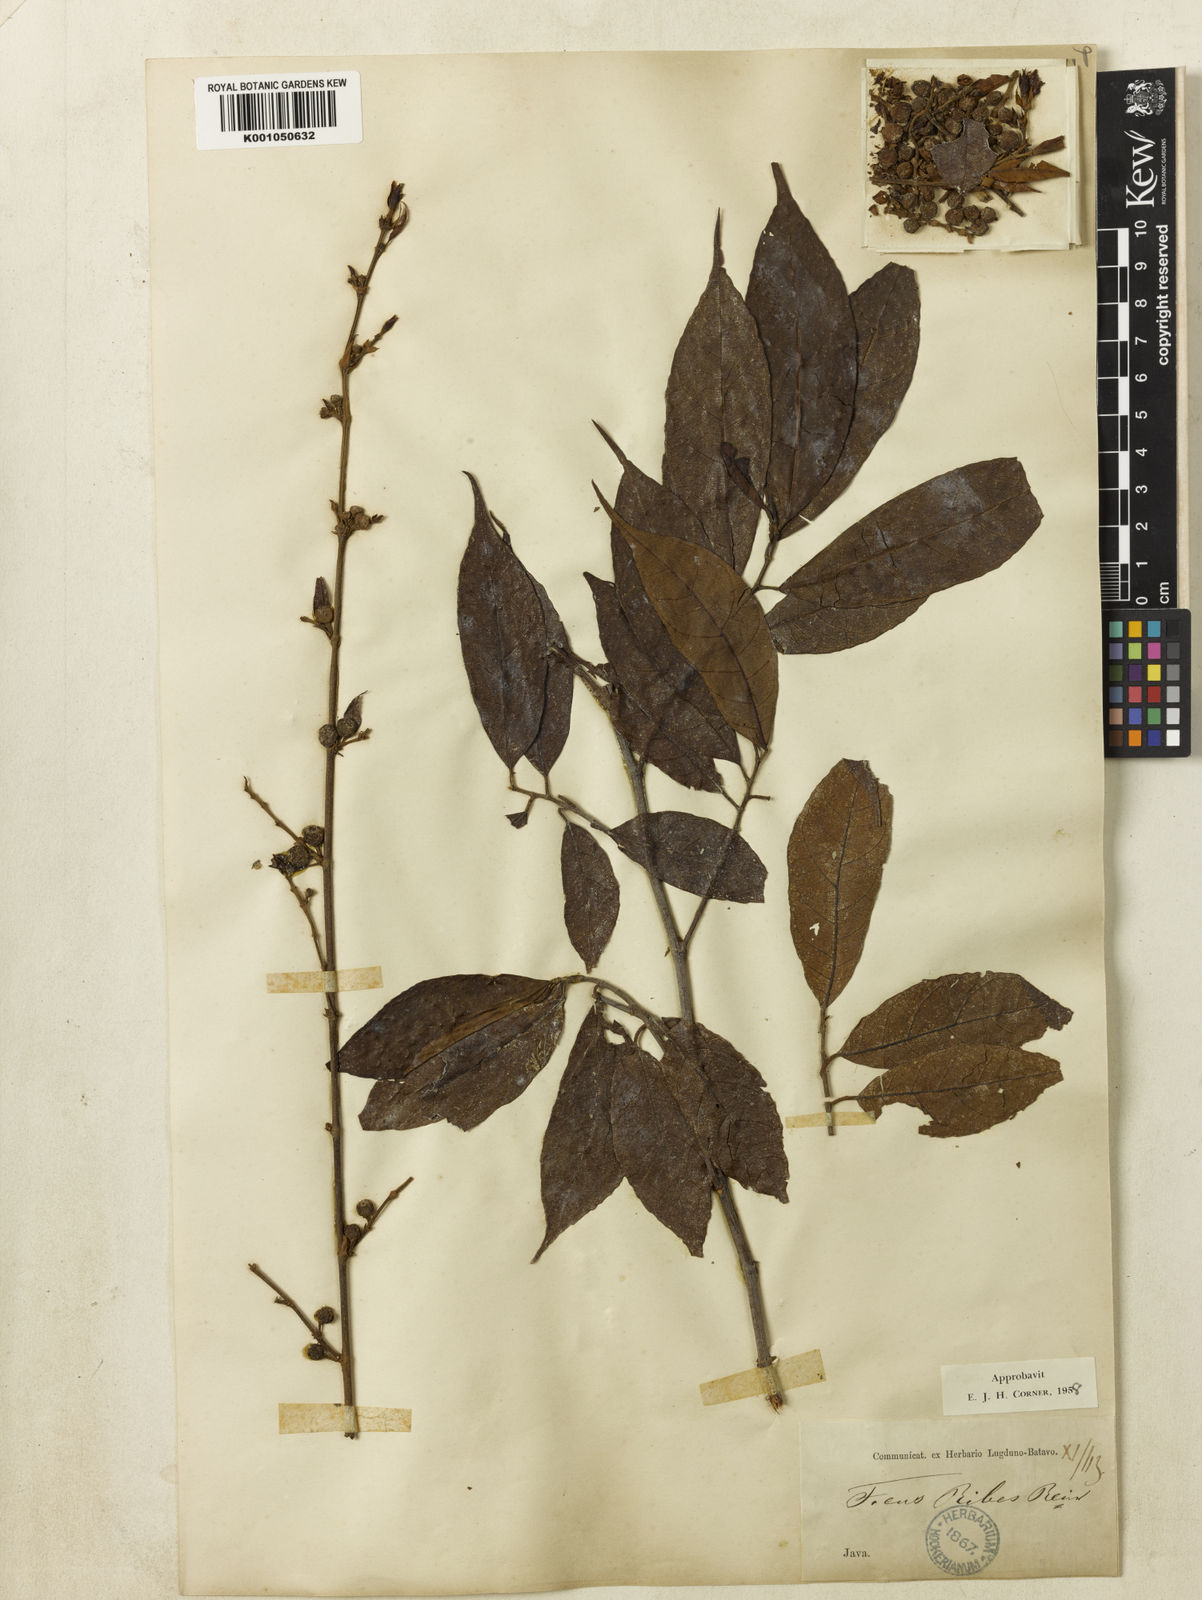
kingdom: Plantae
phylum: Tracheophyta
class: Magnoliopsida
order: Rosales
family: Moraceae
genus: Ficus
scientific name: Ficus ribes
